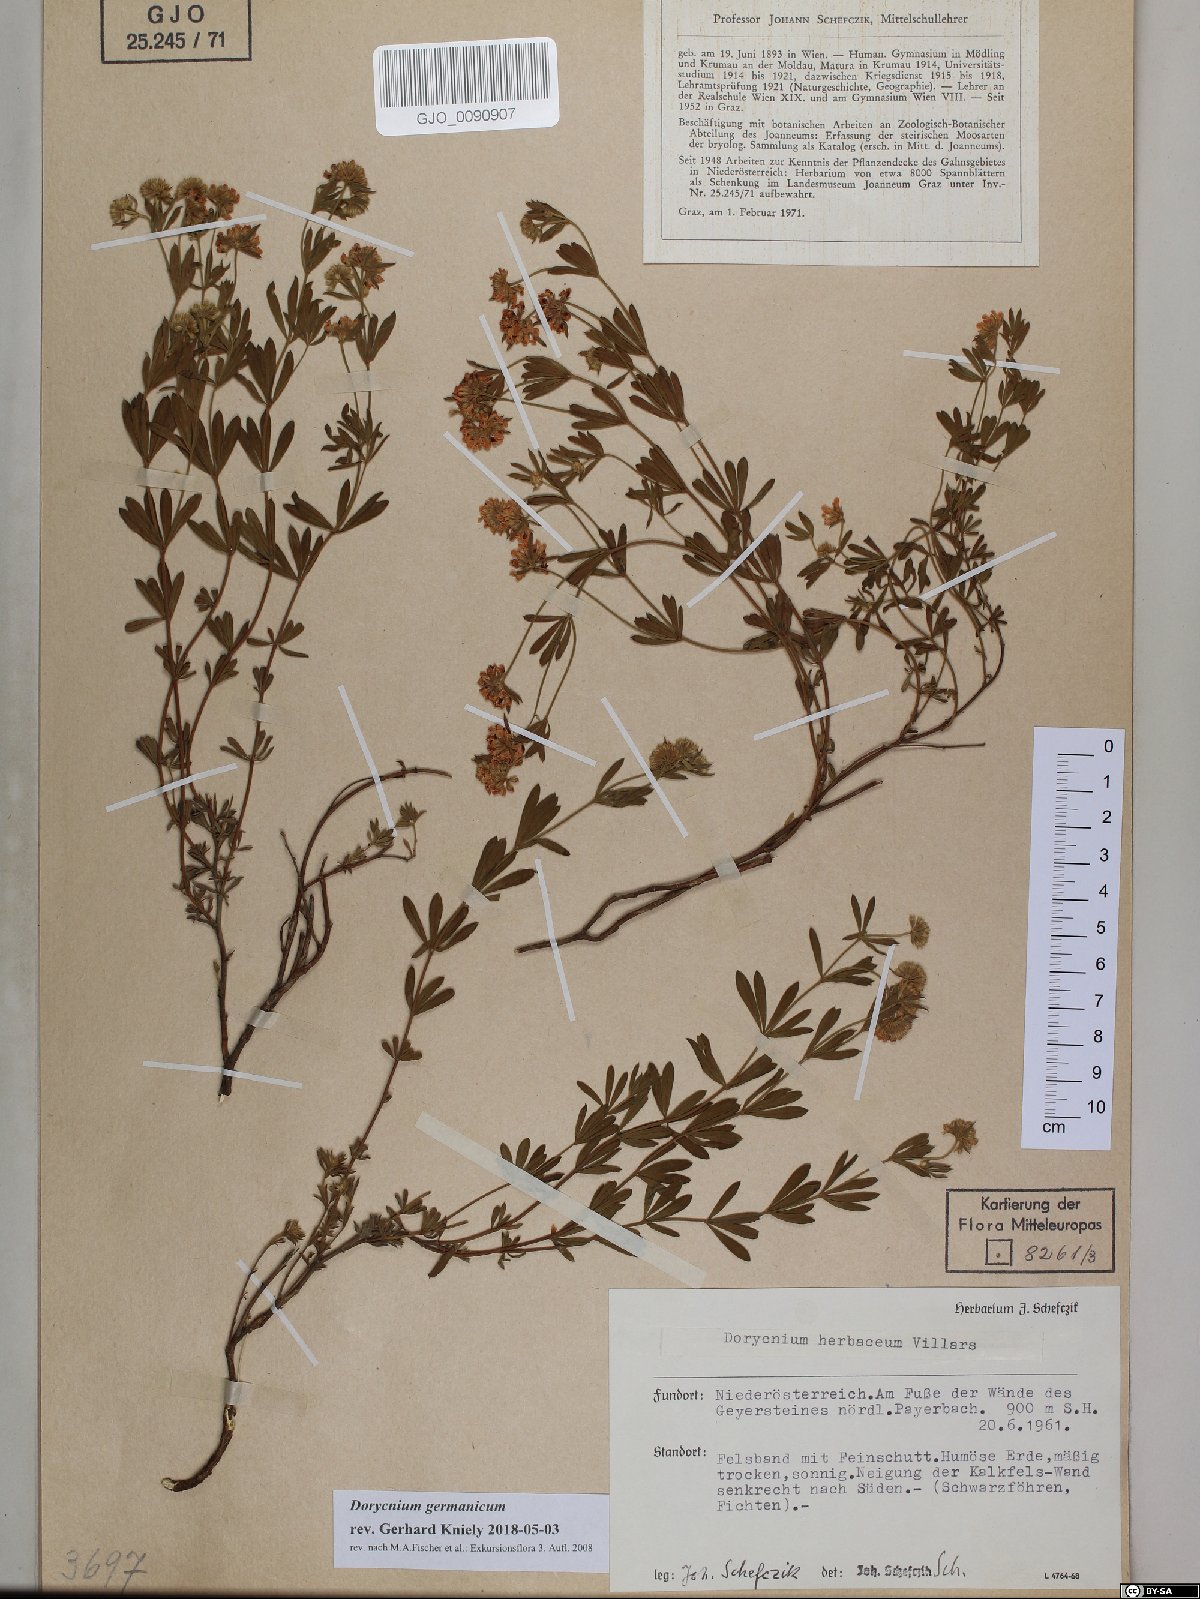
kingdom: Plantae
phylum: Tracheophyta
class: Magnoliopsida
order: Fabales
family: Fabaceae
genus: Lotus
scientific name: Lotus germanicus
